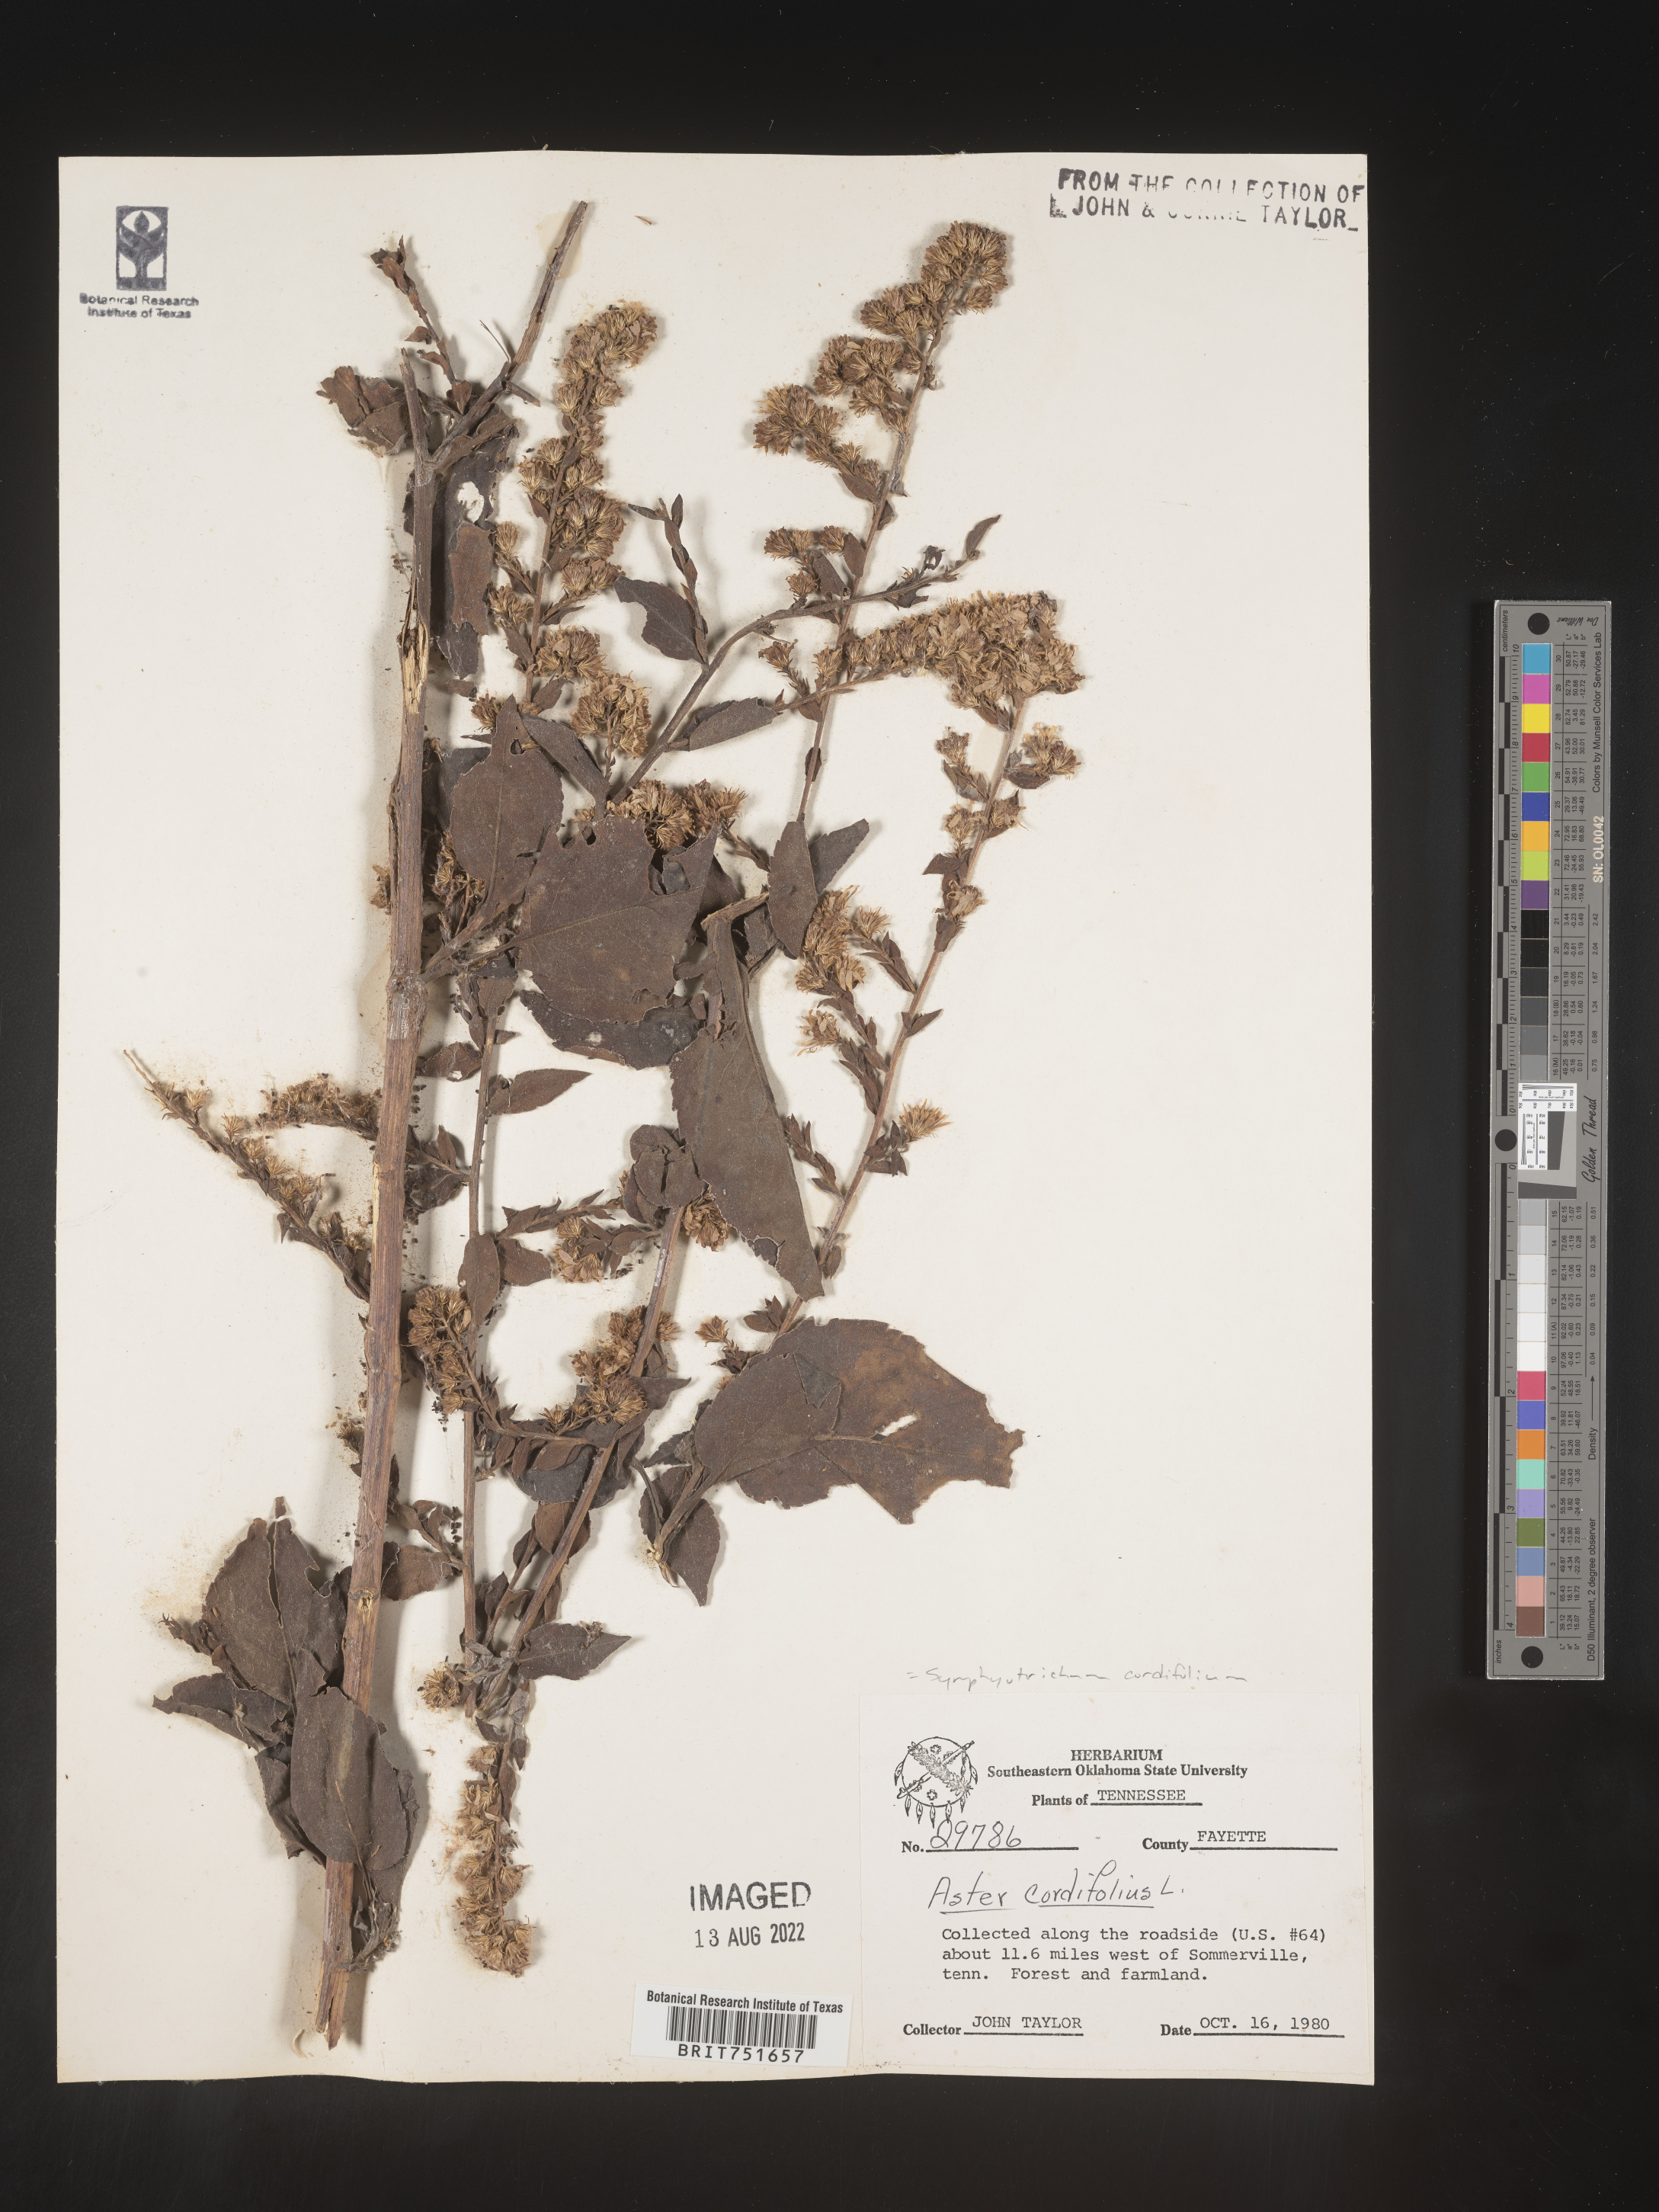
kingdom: Plantae
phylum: Tracheophyta
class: Magnoliopsida
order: Asterales
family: Asteraceae
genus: Symphyotrichum
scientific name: Symphyotrichum cordifolium
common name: Beeweed
